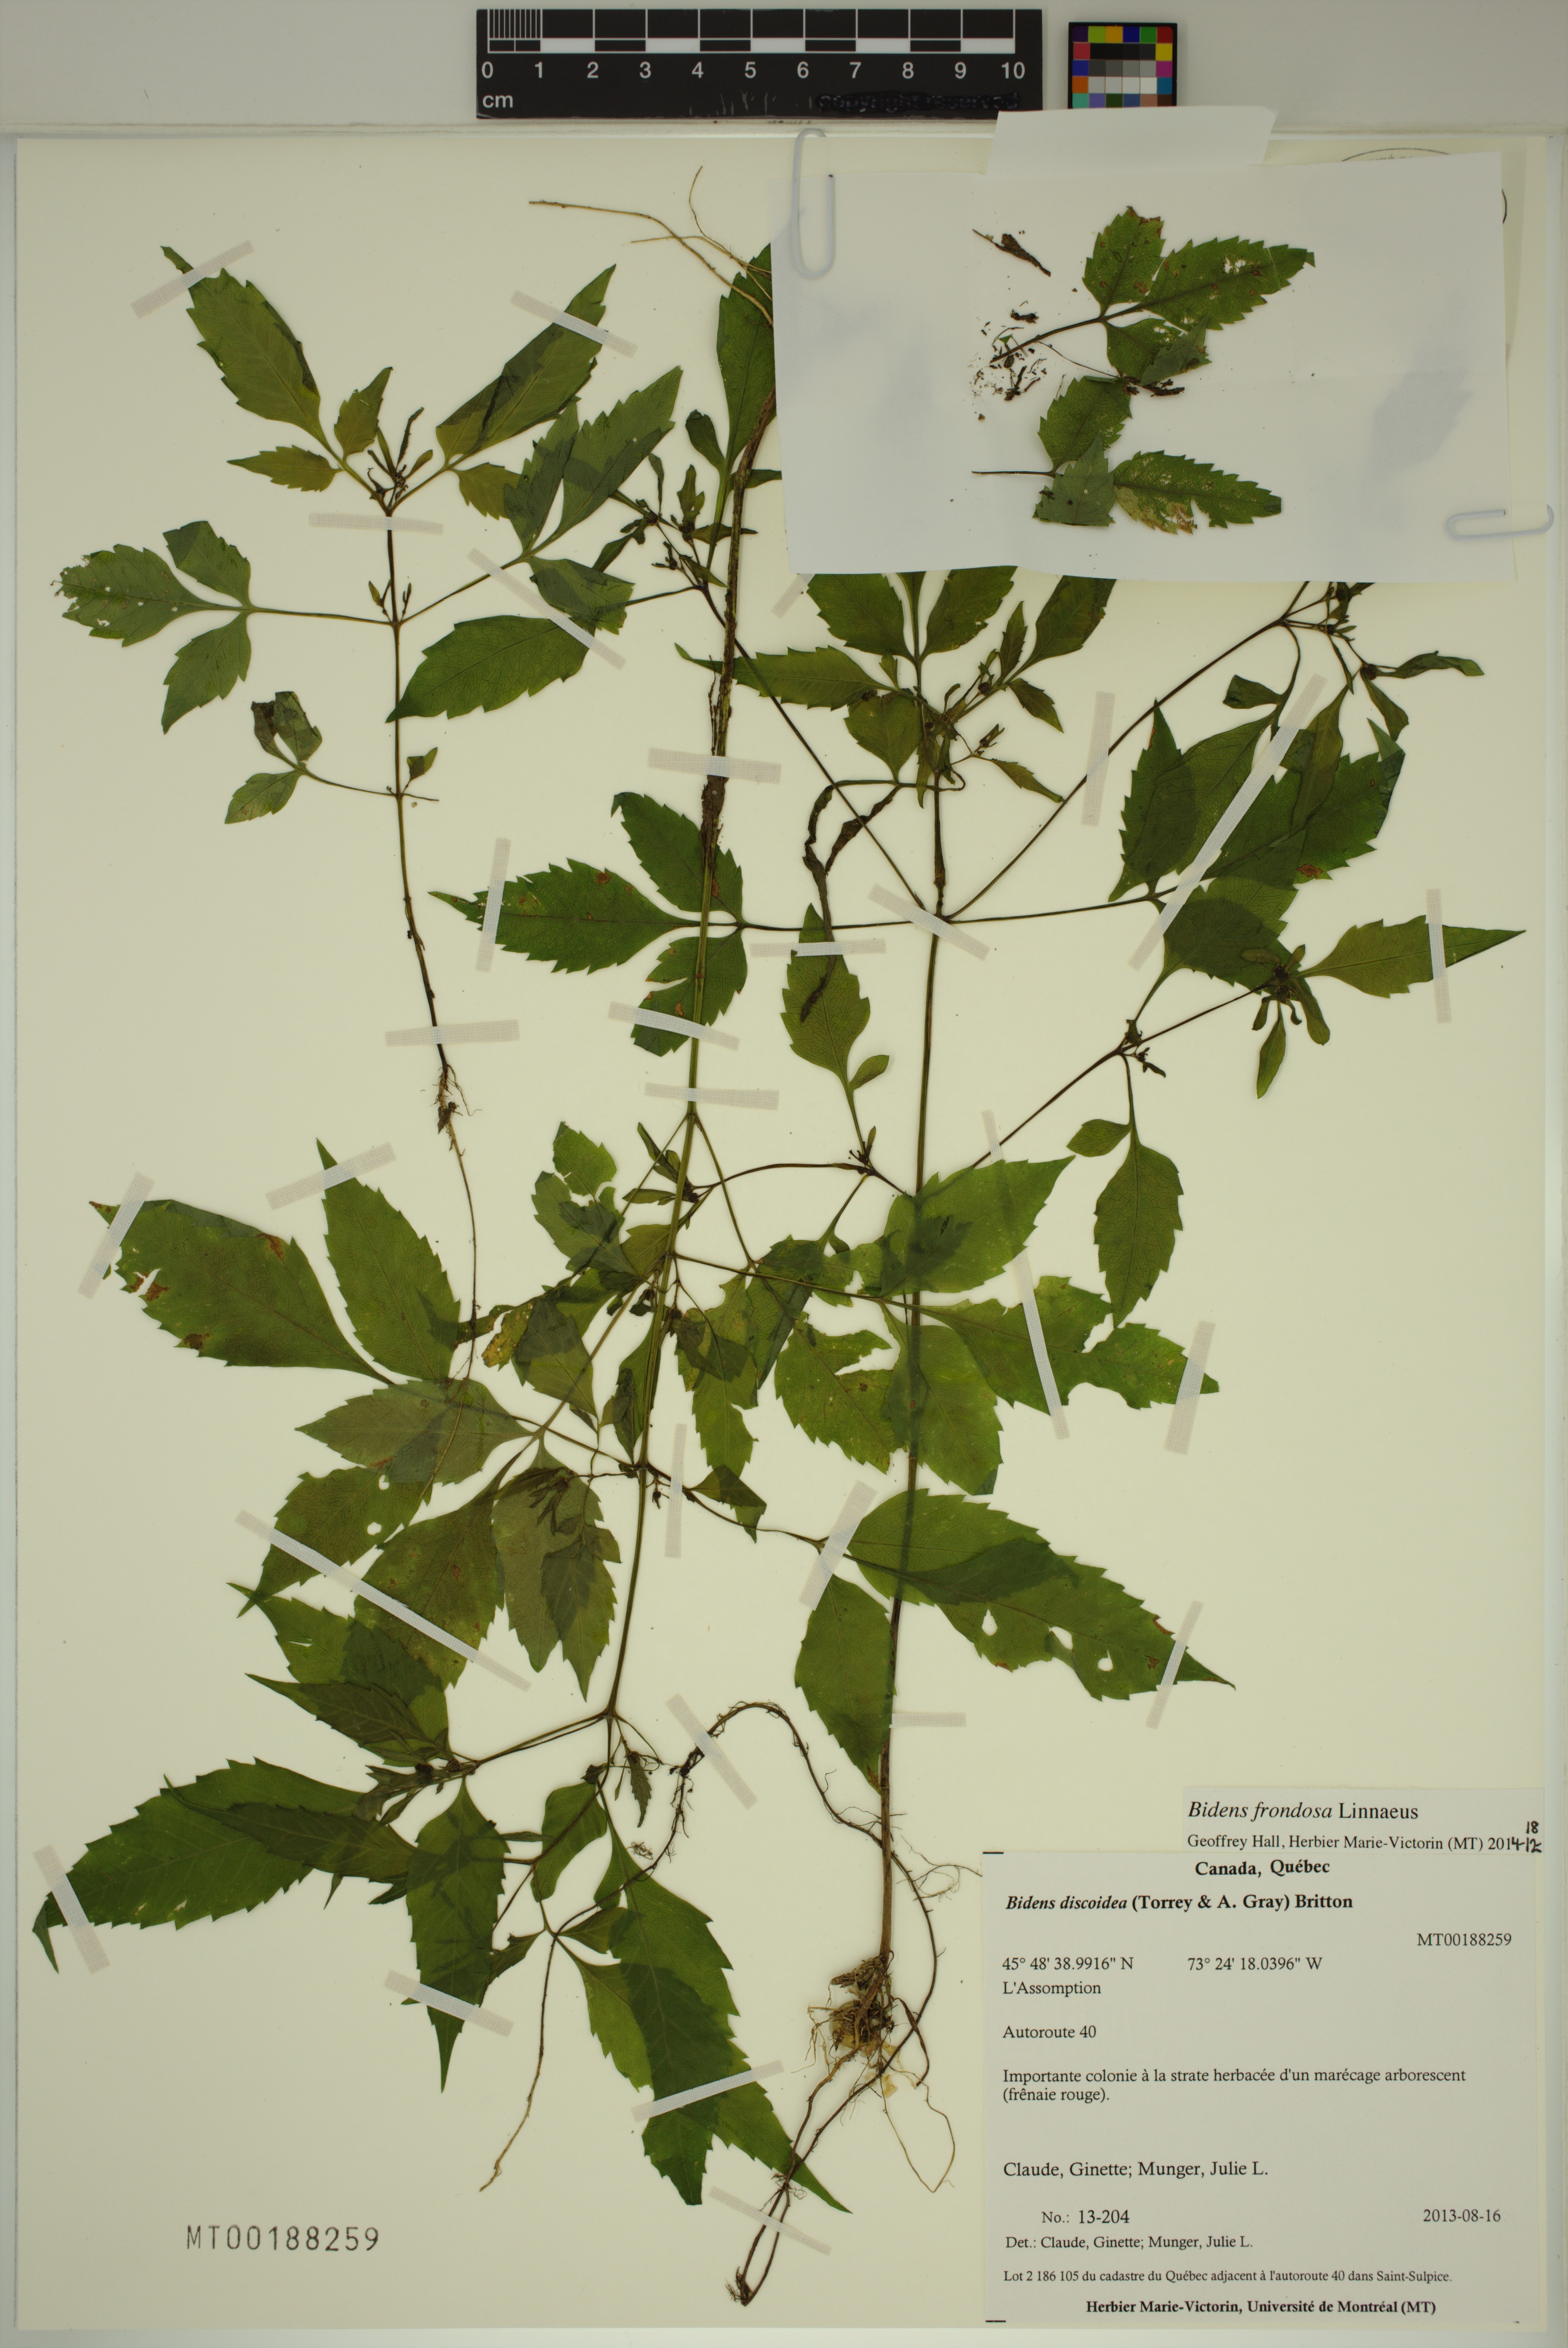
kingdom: Plantae
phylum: Tracheophyta
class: Magnoliopsida
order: Asterales
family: Asteraceae
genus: Bidens
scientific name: Bidens frondosa
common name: Beggarticks
